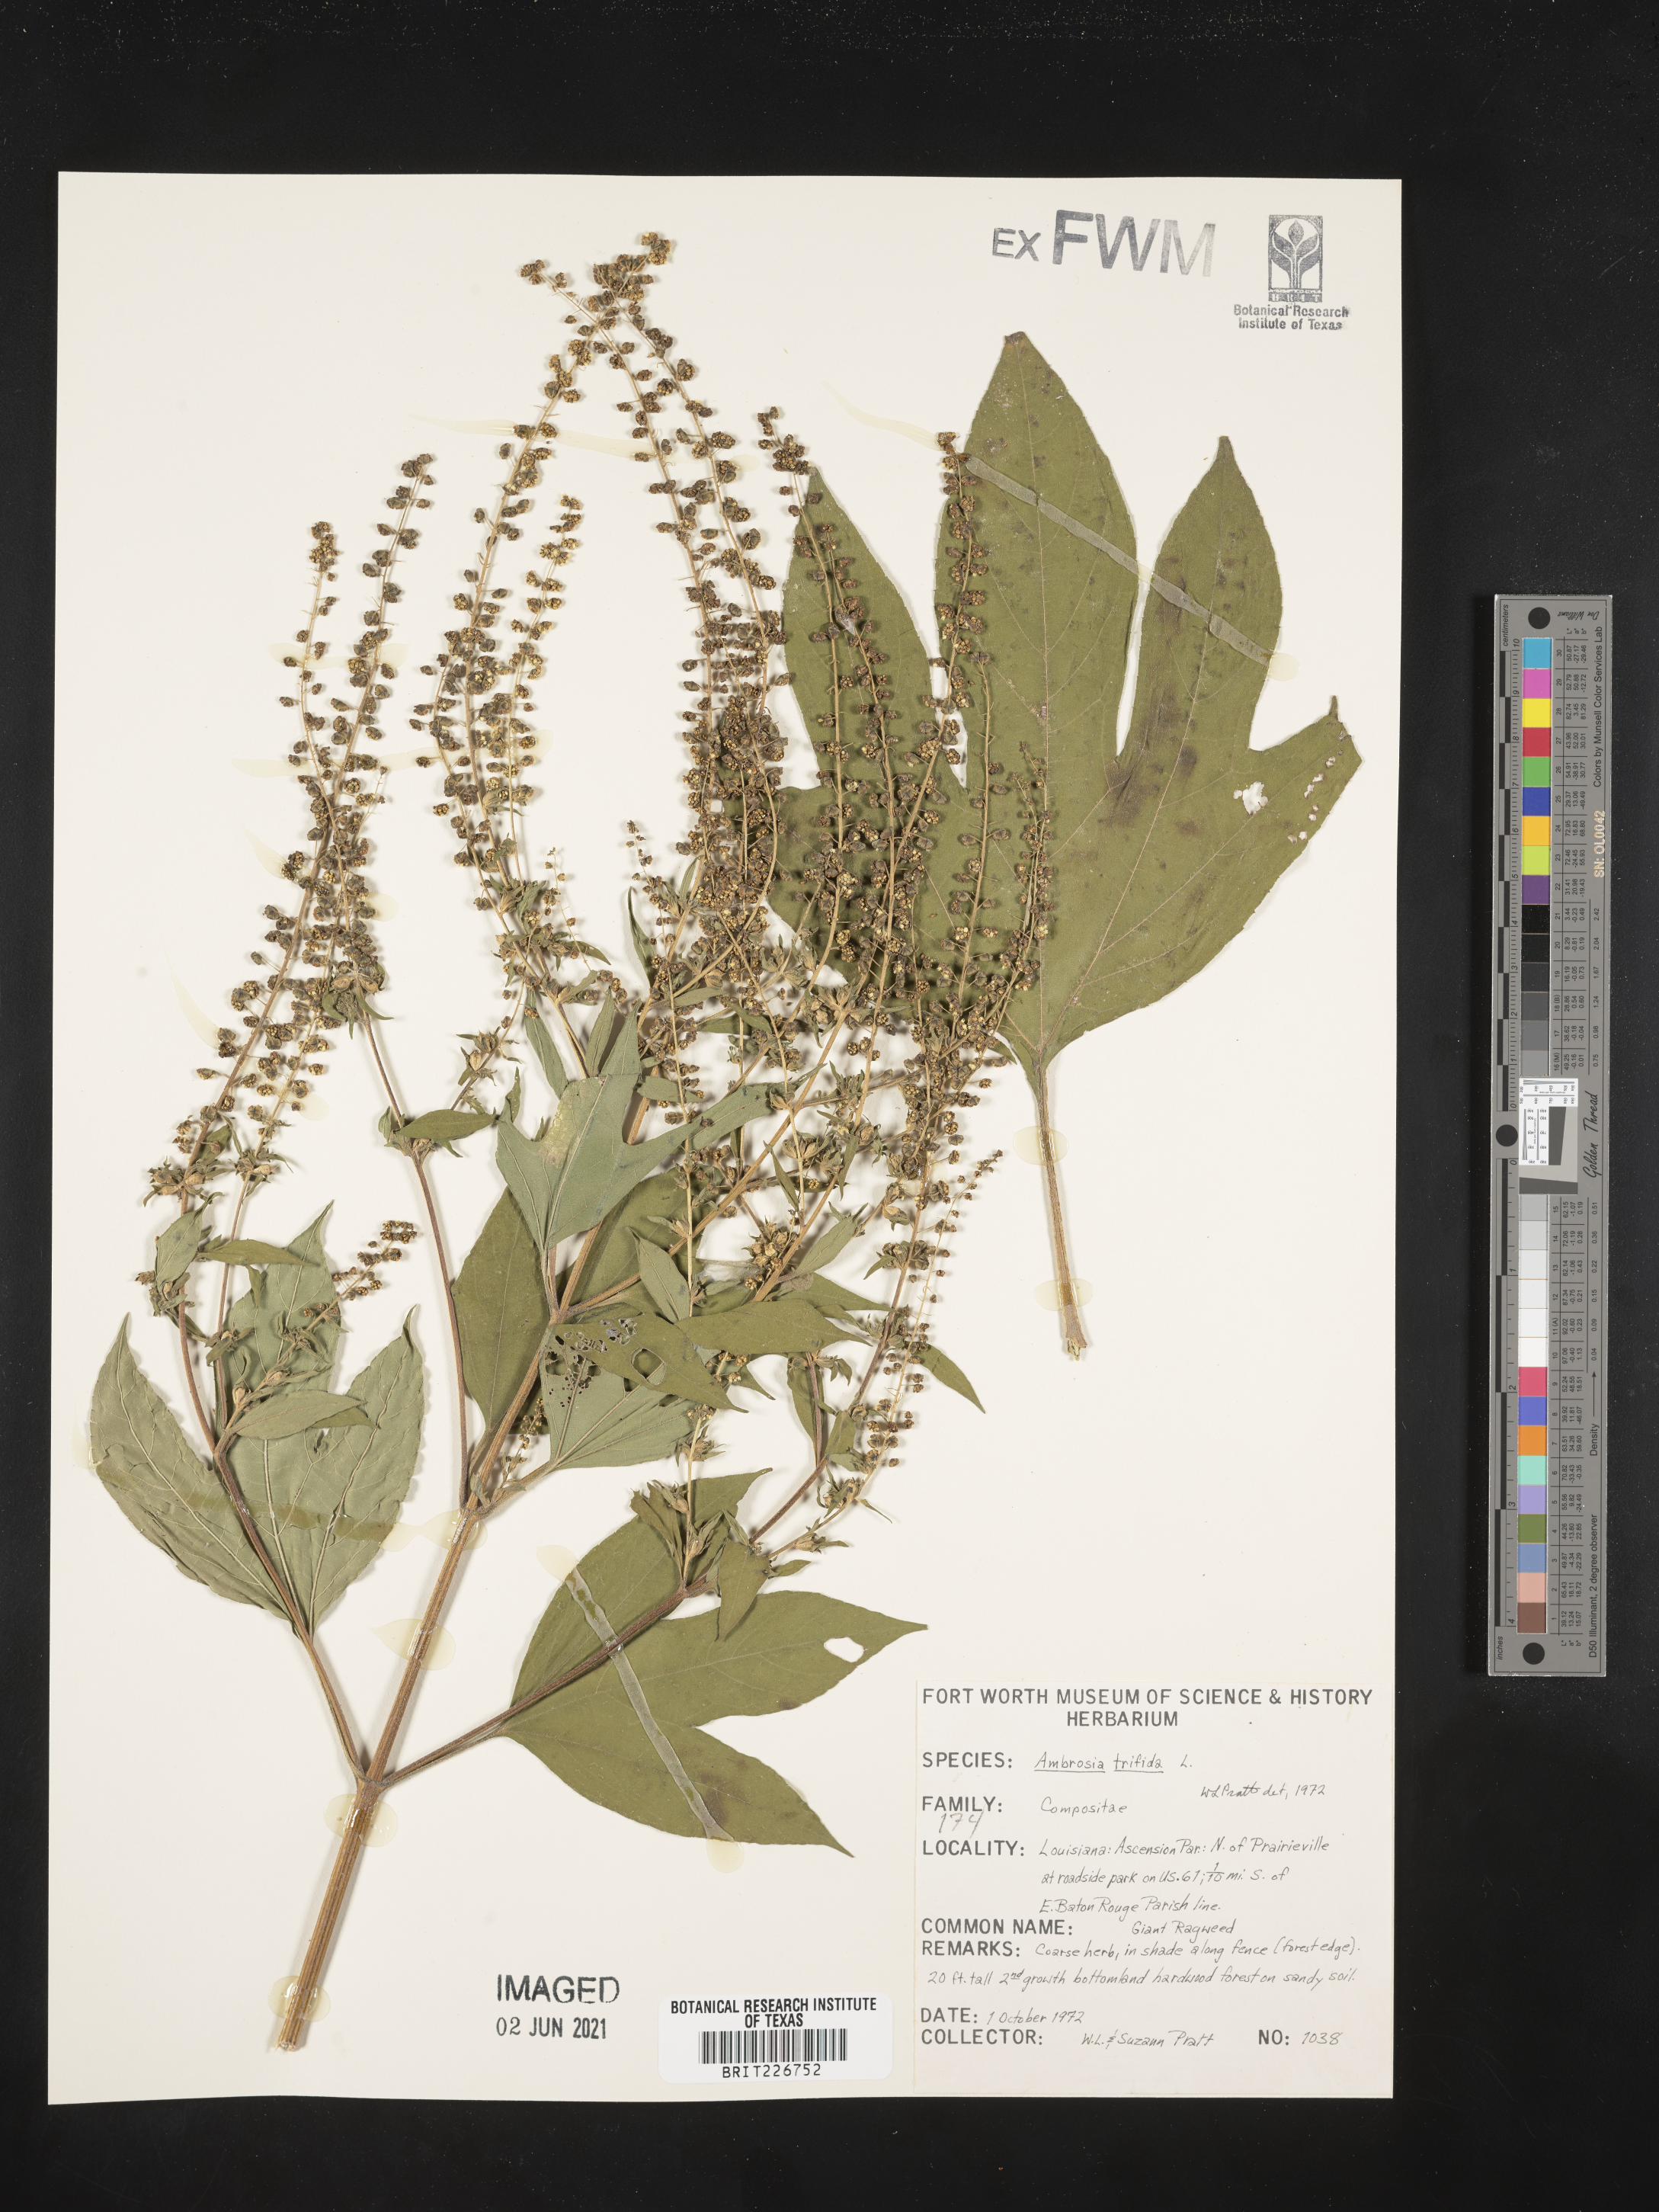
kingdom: Plantae
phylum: Tracheophyta
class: Magnoliopsida
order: Asterales
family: Asteraceae
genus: Ambrosia
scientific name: Ambrosia trifida
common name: Giant ragweed
